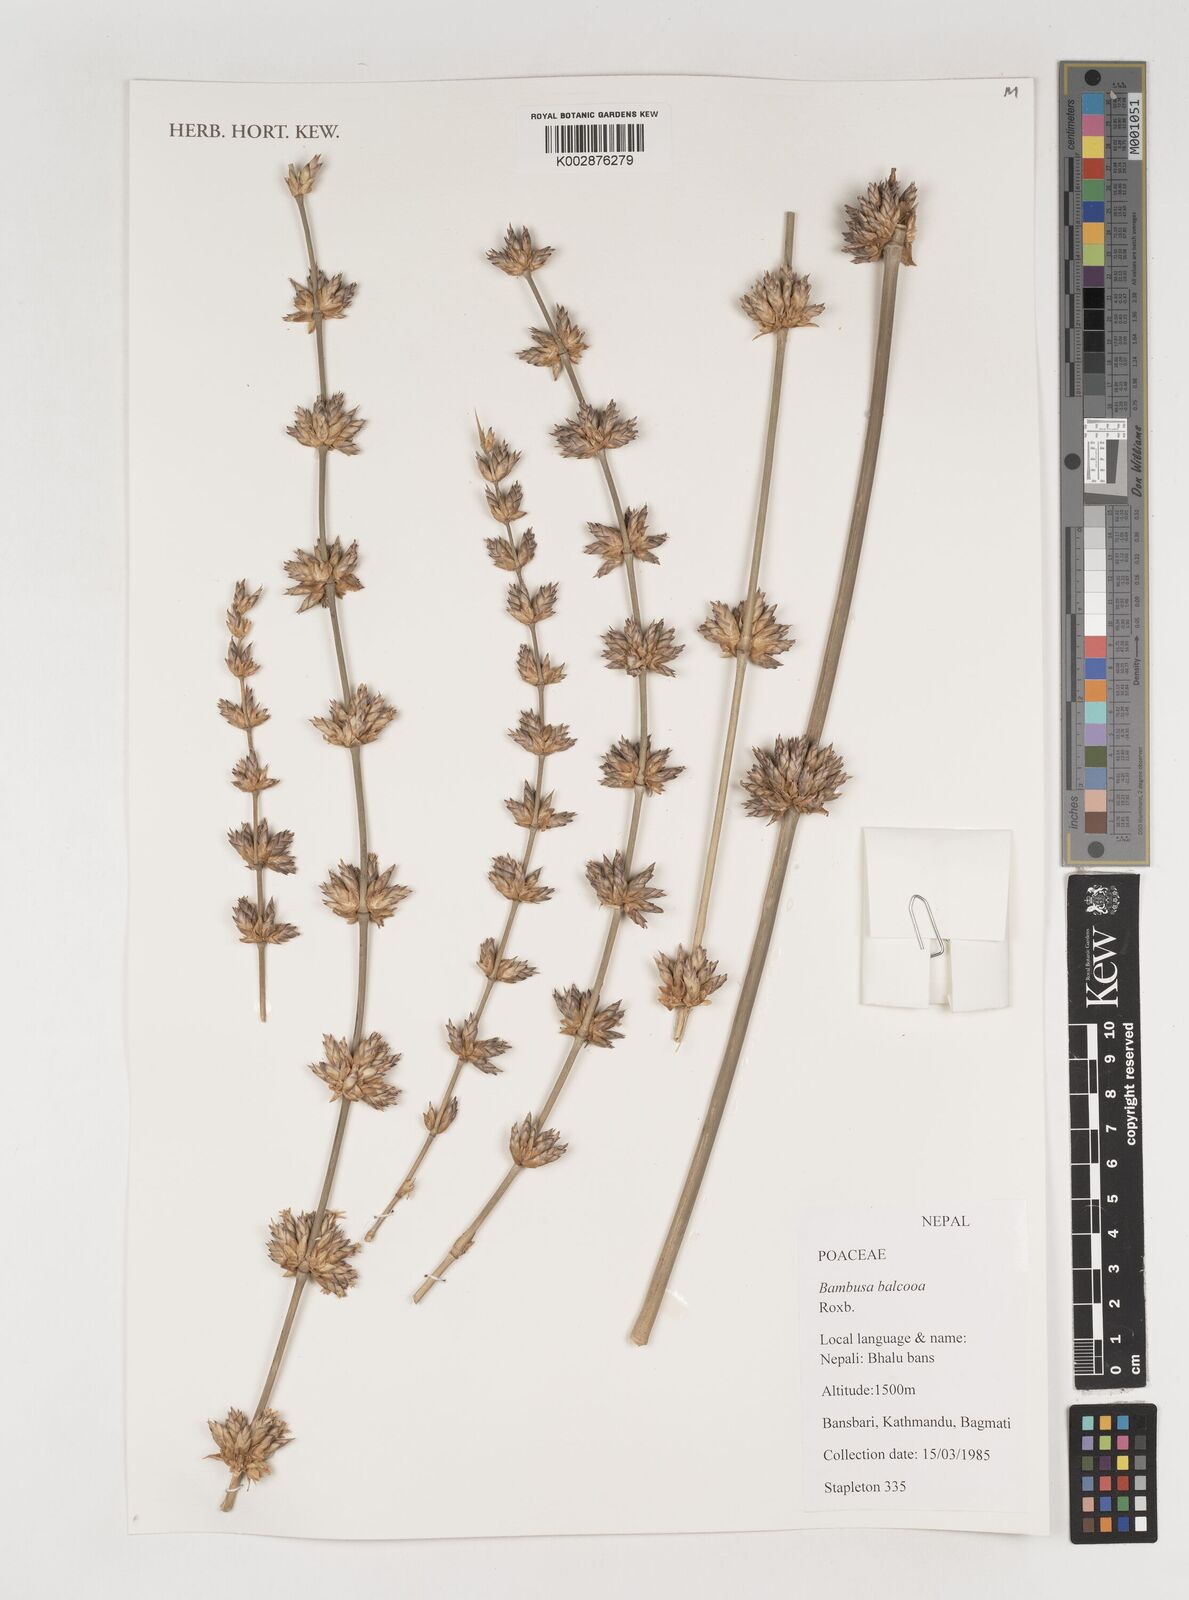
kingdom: Plantae
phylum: Tracheophyta
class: Liliopsida
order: Poales
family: Poaceae
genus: Bambusa
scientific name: Bambusa balcooa
